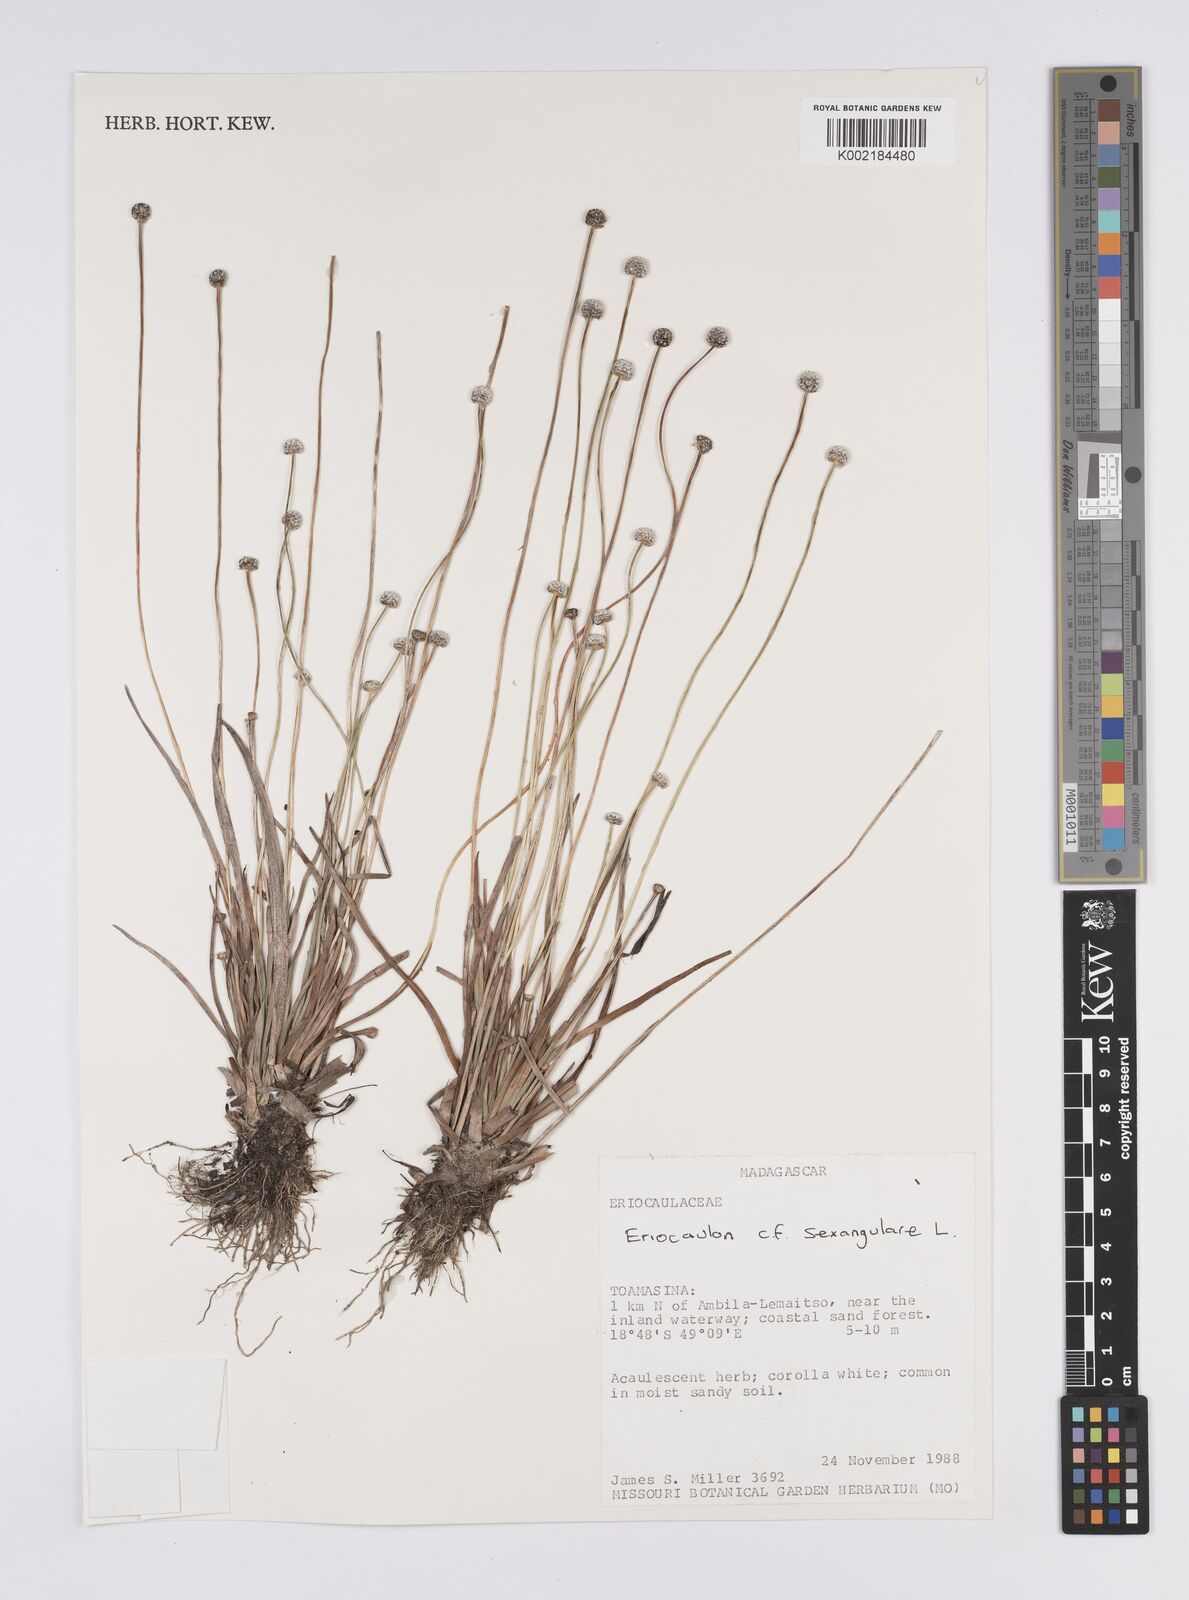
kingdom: Plantae
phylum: Tracheophyta
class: Liliopsida
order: Poales
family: Eriocaulaceae
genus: Eriocaulon
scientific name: Eriocaulon willdenovianum
